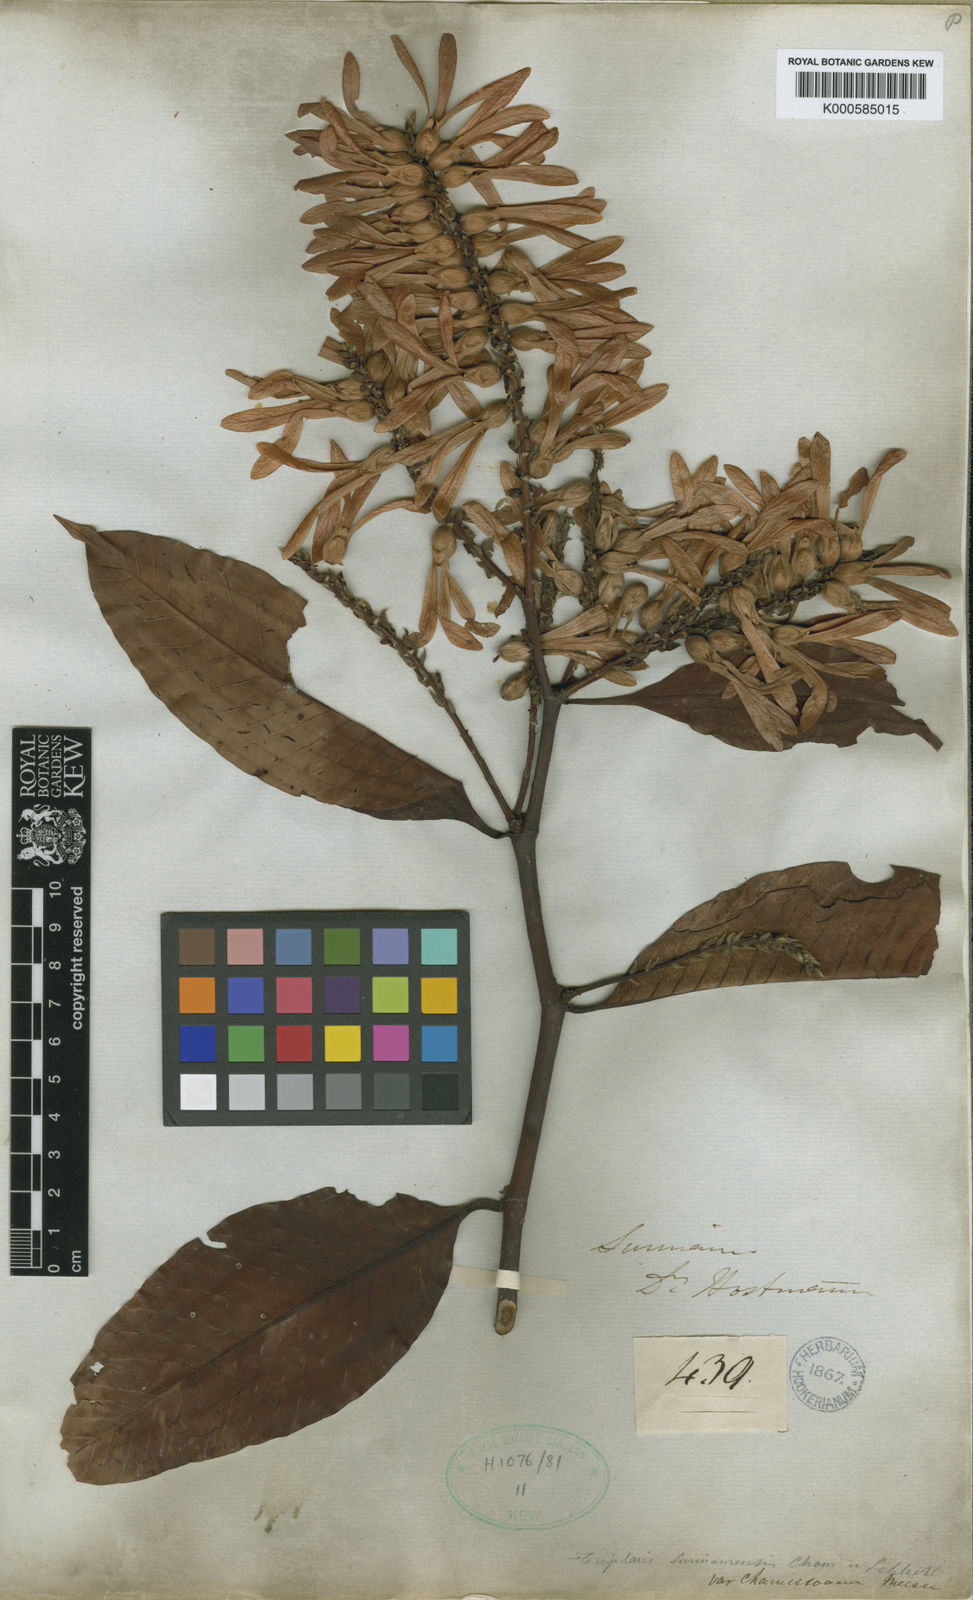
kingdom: Plantae
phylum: Tracheophyta
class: Magnoliopsida
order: Caryophyllales
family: Polygonaceae
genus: Triplaris
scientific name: Triplaris weigeltiana
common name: Long john
